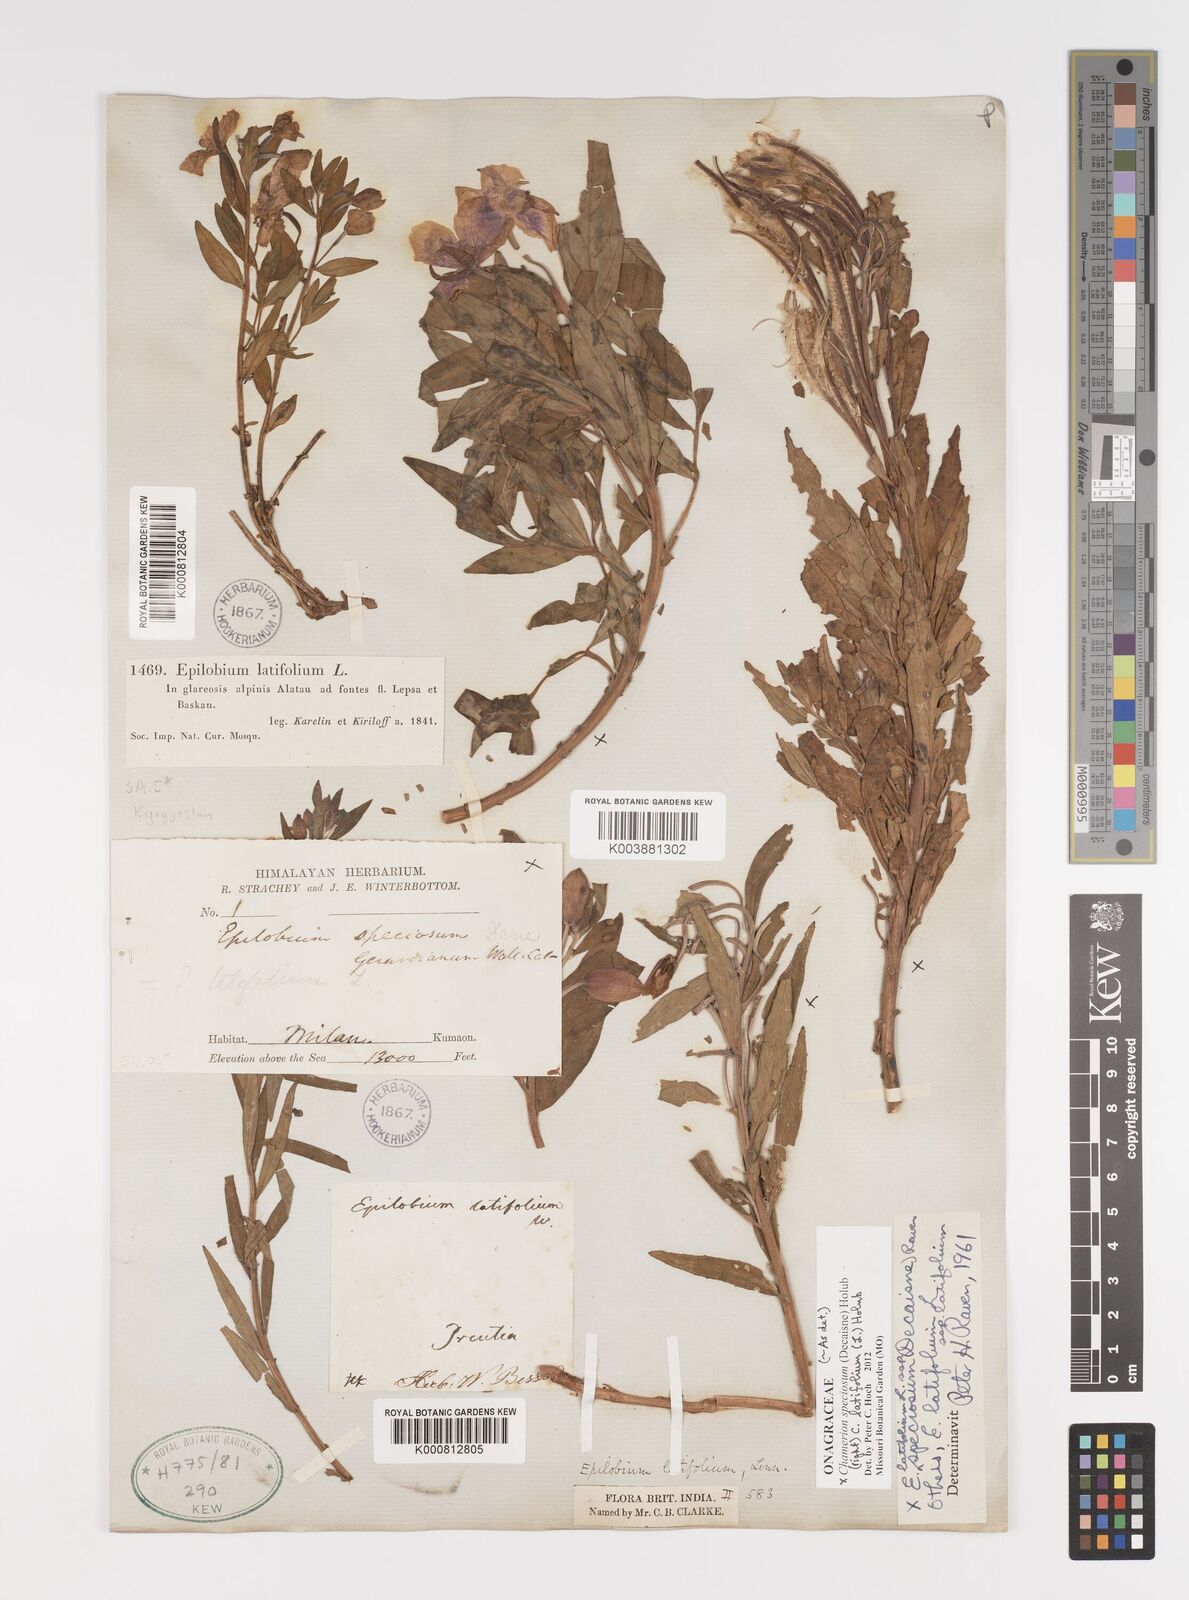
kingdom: Plantae
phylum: Tracheophyta
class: Magnoliopsida
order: Myrtales
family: Onagraceae
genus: Chamaenerion
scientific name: Chamaenerion latifolium
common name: Dwarf fireweed
